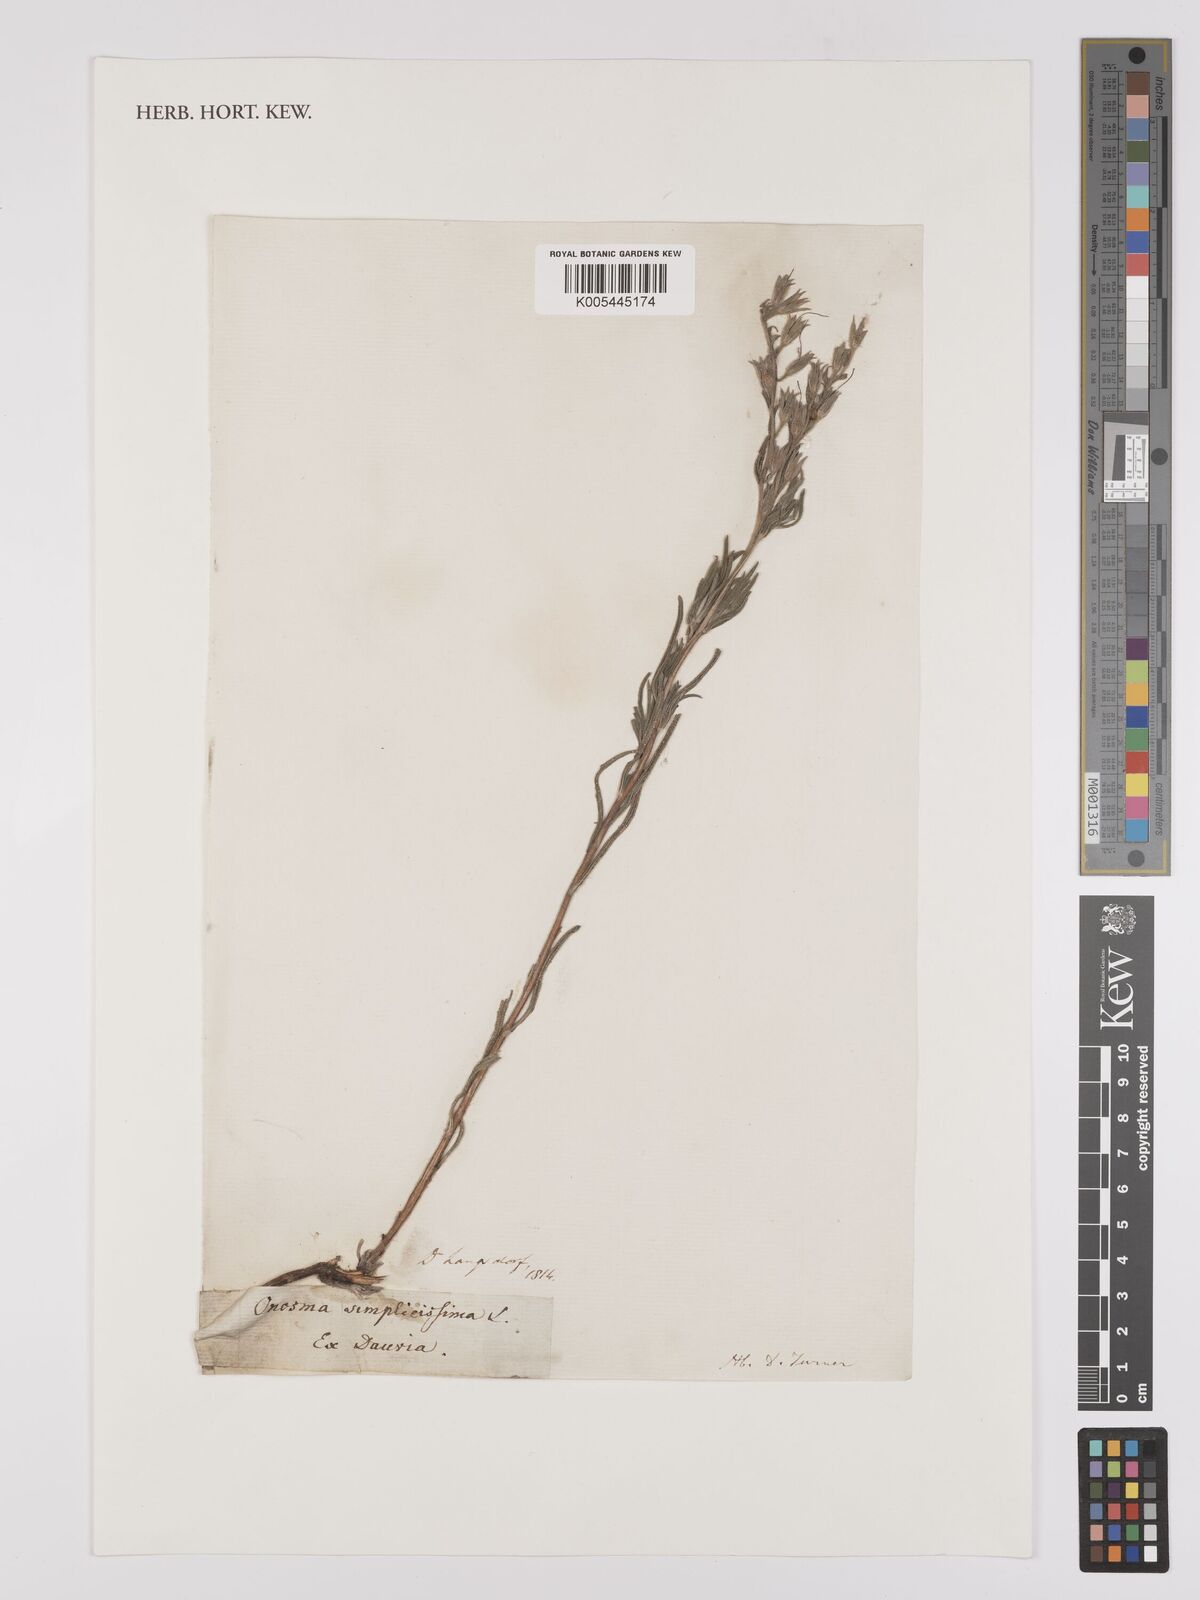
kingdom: Plantae
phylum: Tracheophyta
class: Magnoliopsida
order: Boraginales
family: Boraginaceae
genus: Onosma
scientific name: Onosma simplicissima
